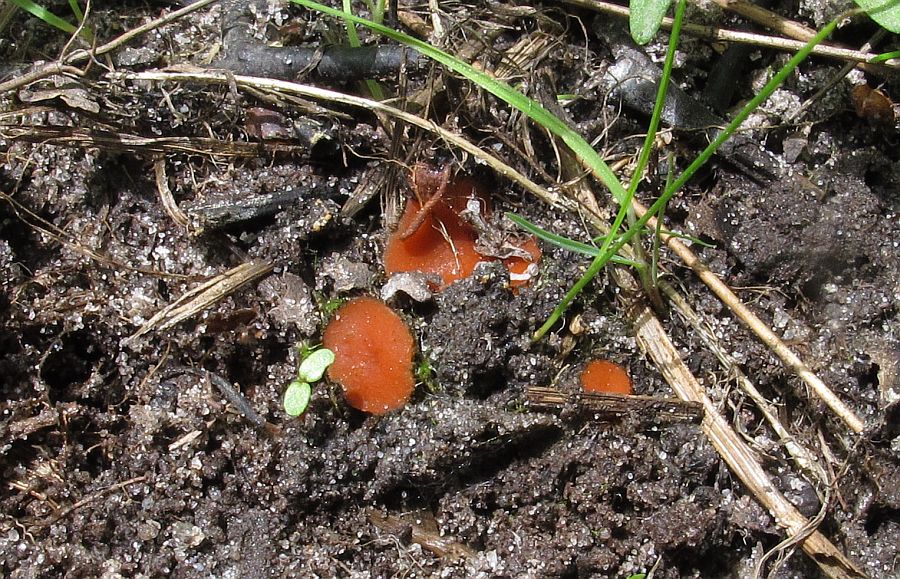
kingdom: Fungi
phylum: Ascomycota
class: Pezizomycetes
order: Pezizales
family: Pyronemataceae
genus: Scutellinia
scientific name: Scutellinia scutellata
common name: frynset skjoldbæger
